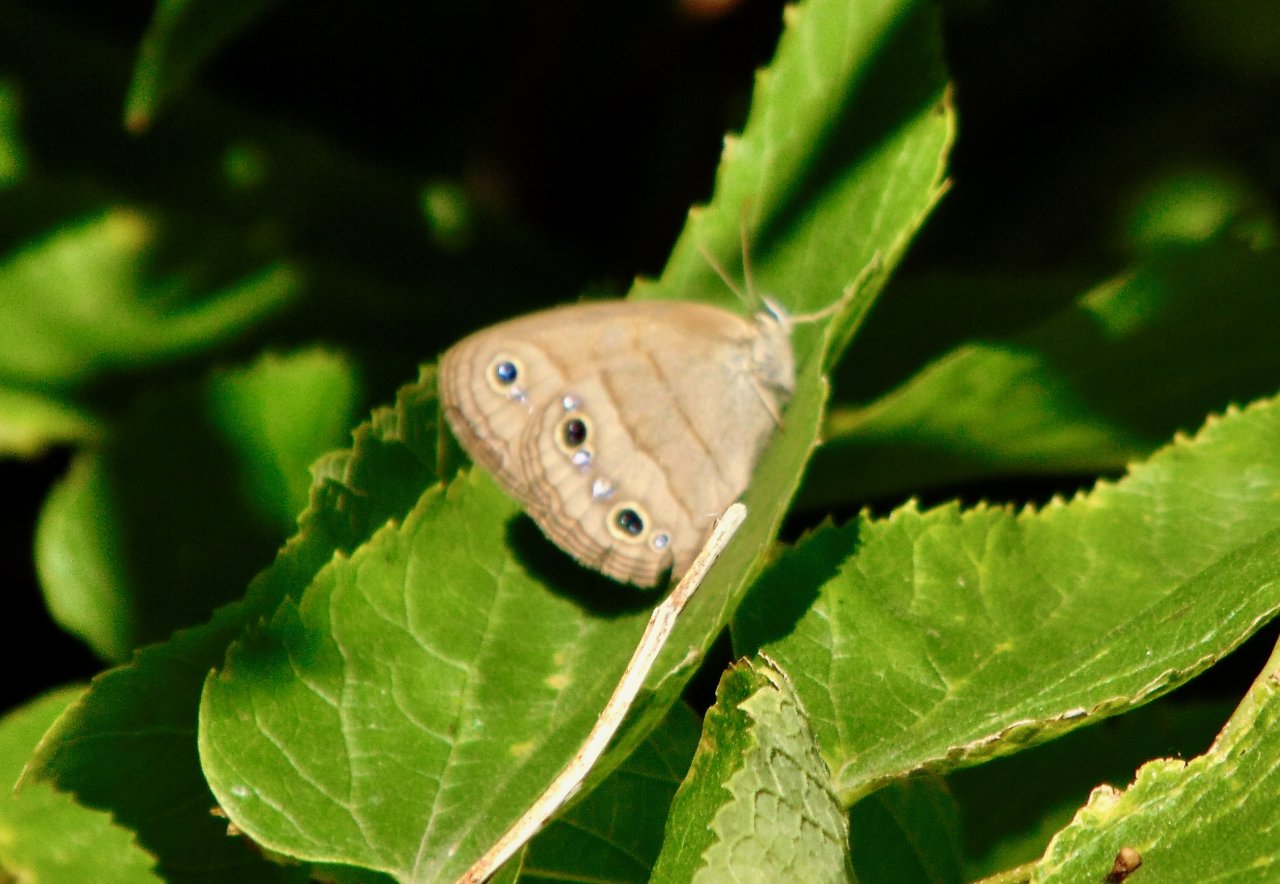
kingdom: Animalia
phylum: Arthropoda
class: Insecta
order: Lepidoptera
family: Nymphalidae
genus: Euptychia
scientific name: Euptychia cymela
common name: Little Wood Satyr
